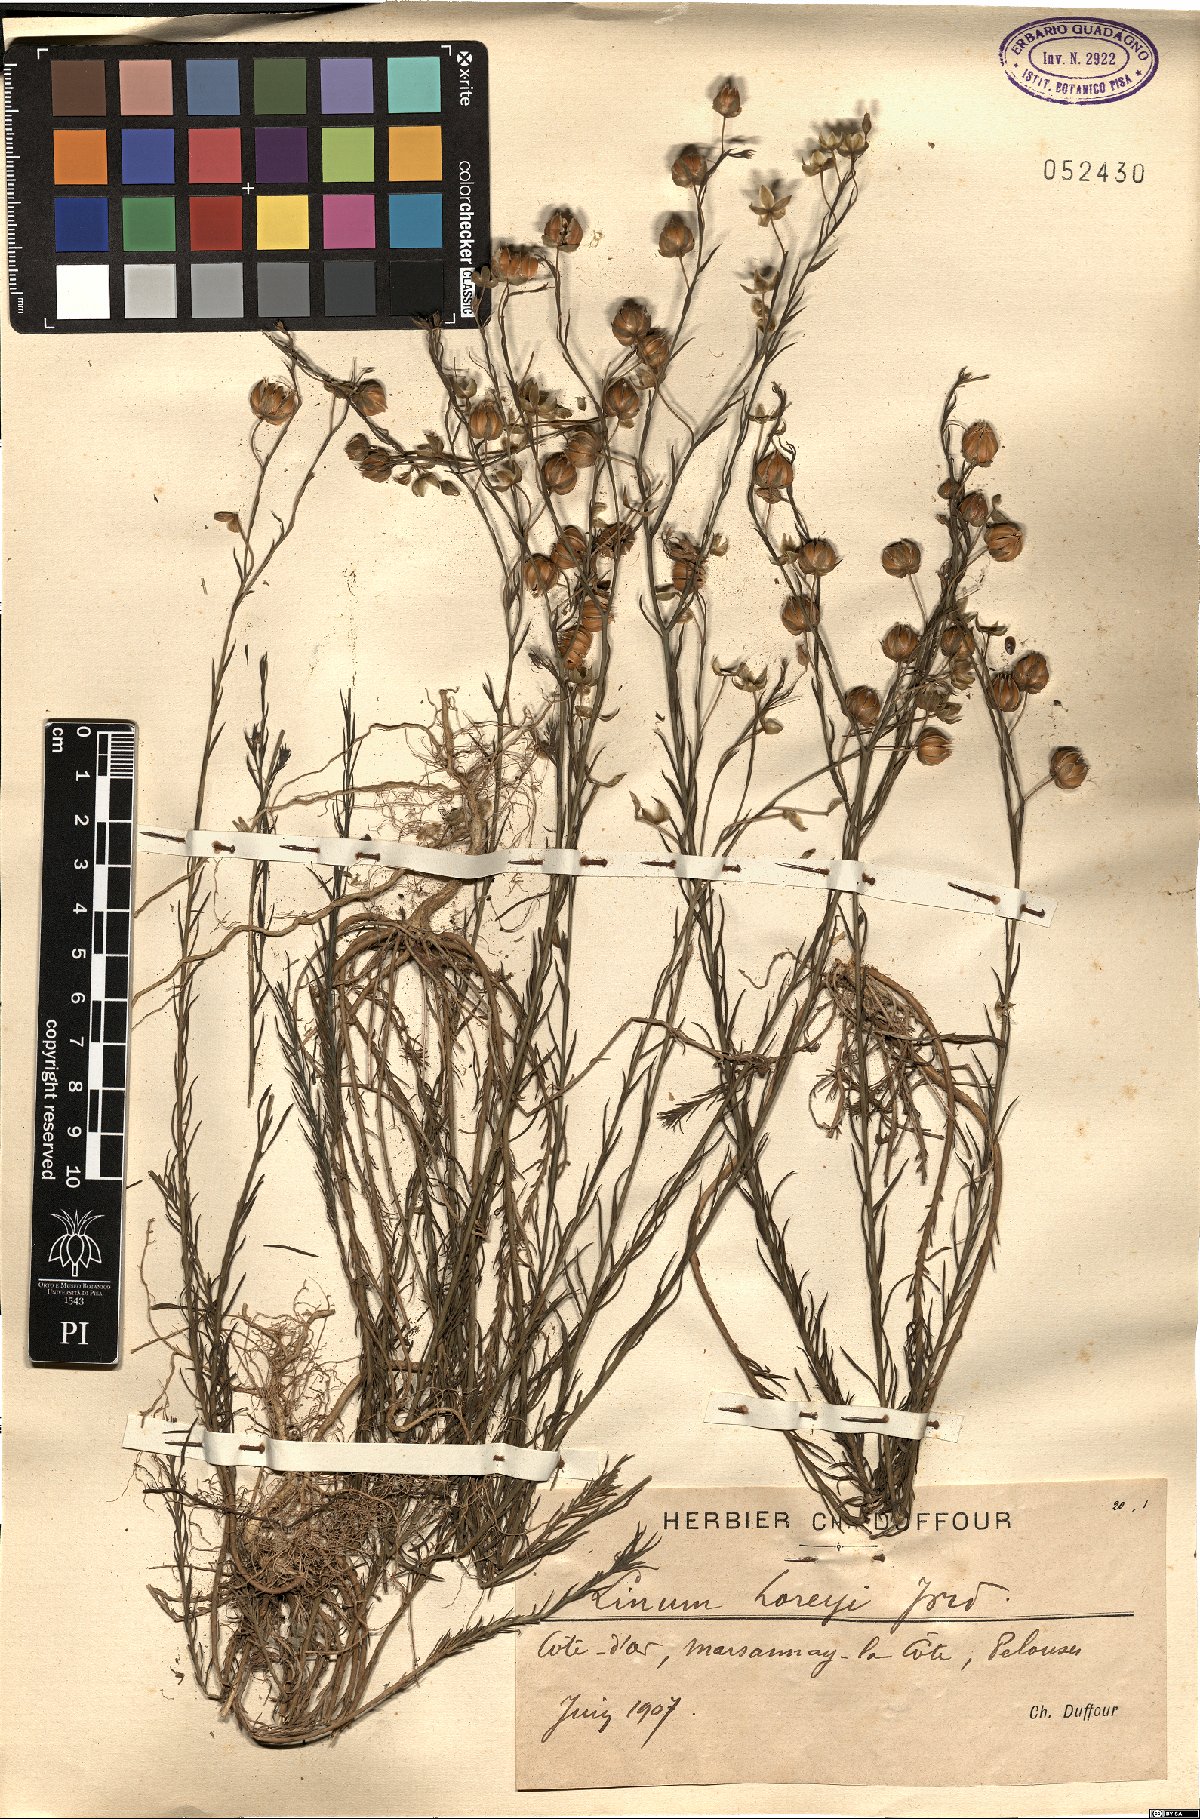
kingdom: Plantae
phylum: Tracheophyta
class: Magnoliopsida
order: Malpighiales
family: Linaceae
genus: Linum
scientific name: Linum
